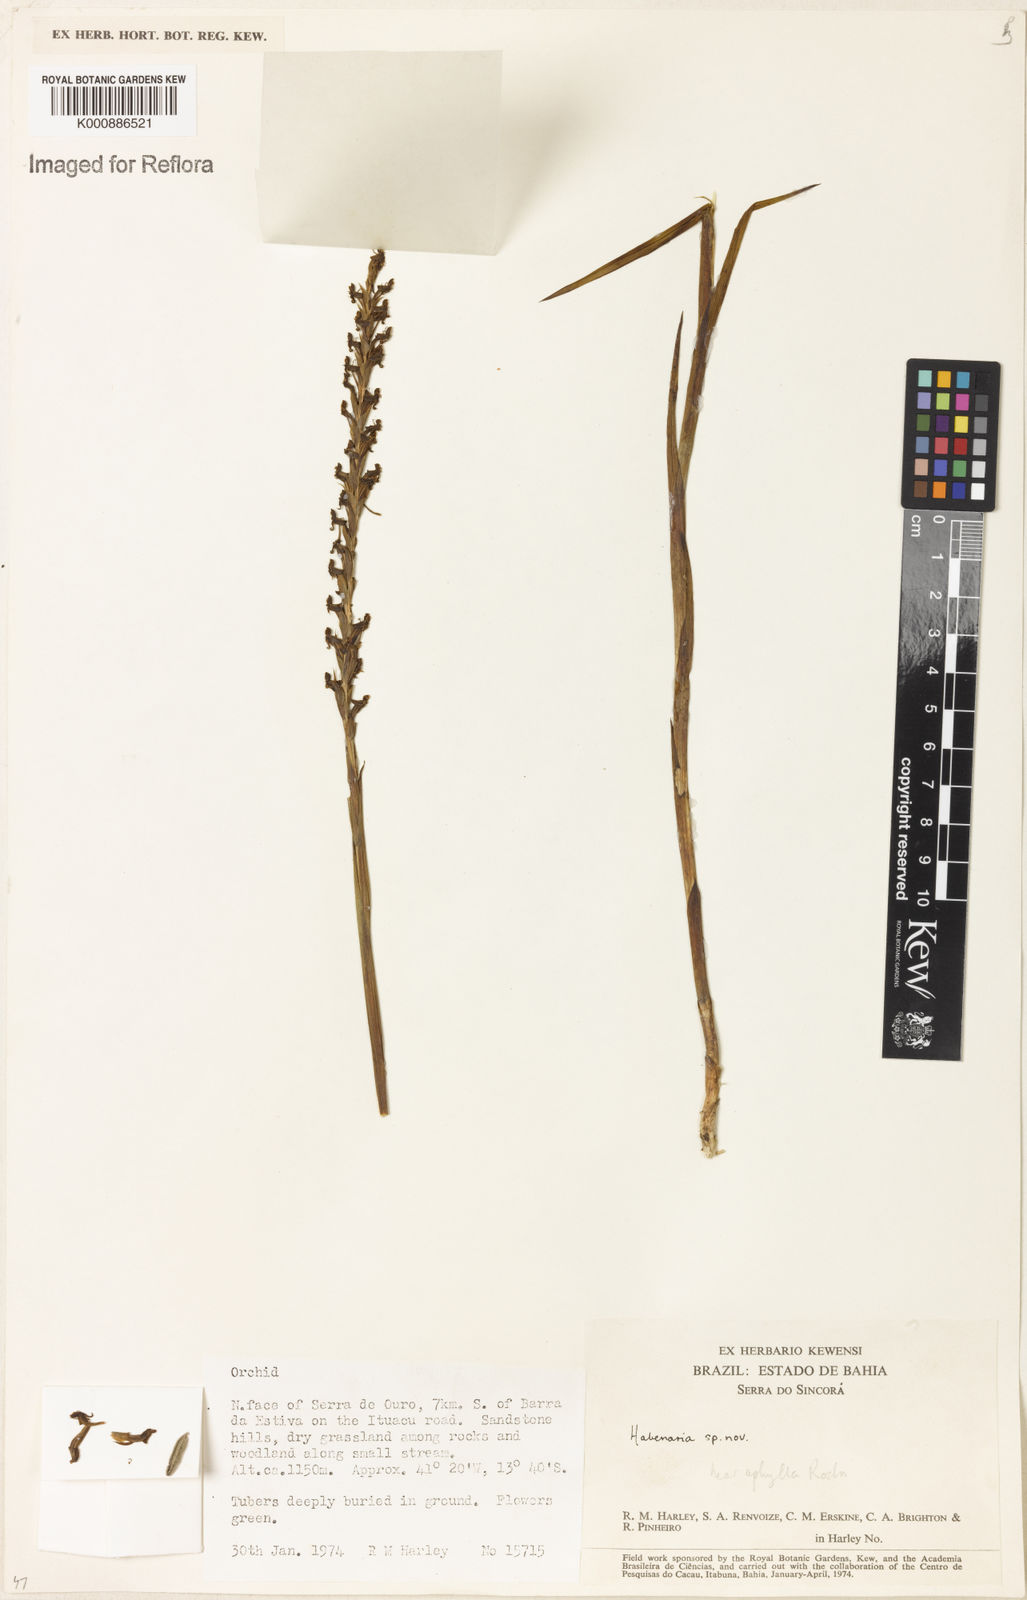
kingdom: Plantae
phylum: Tracheophyta
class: Liliopsida
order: Asparagales
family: Orchidaceae
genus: Habenaria
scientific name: Habenaria
